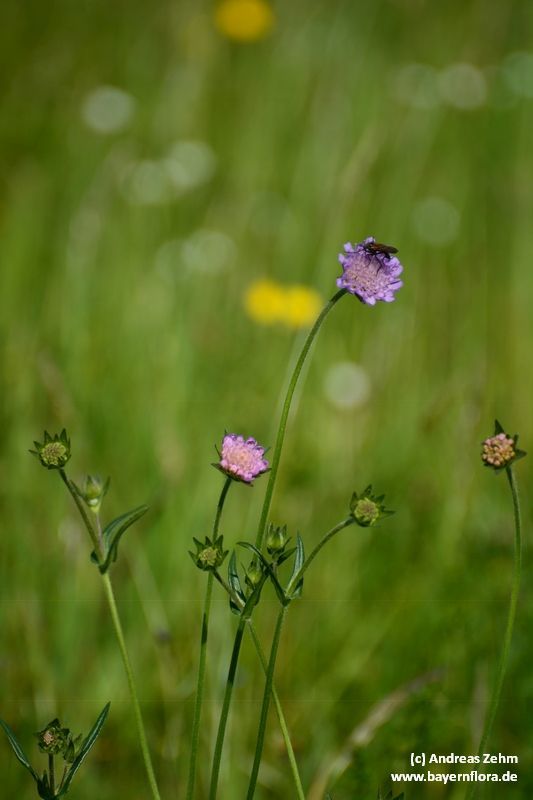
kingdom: Plantae
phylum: Tracheophyta
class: Magnoliopsida
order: Dipsacales
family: Caprifoliaceae
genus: Knautia
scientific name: Knautia arvensis
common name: Field scabiosa
